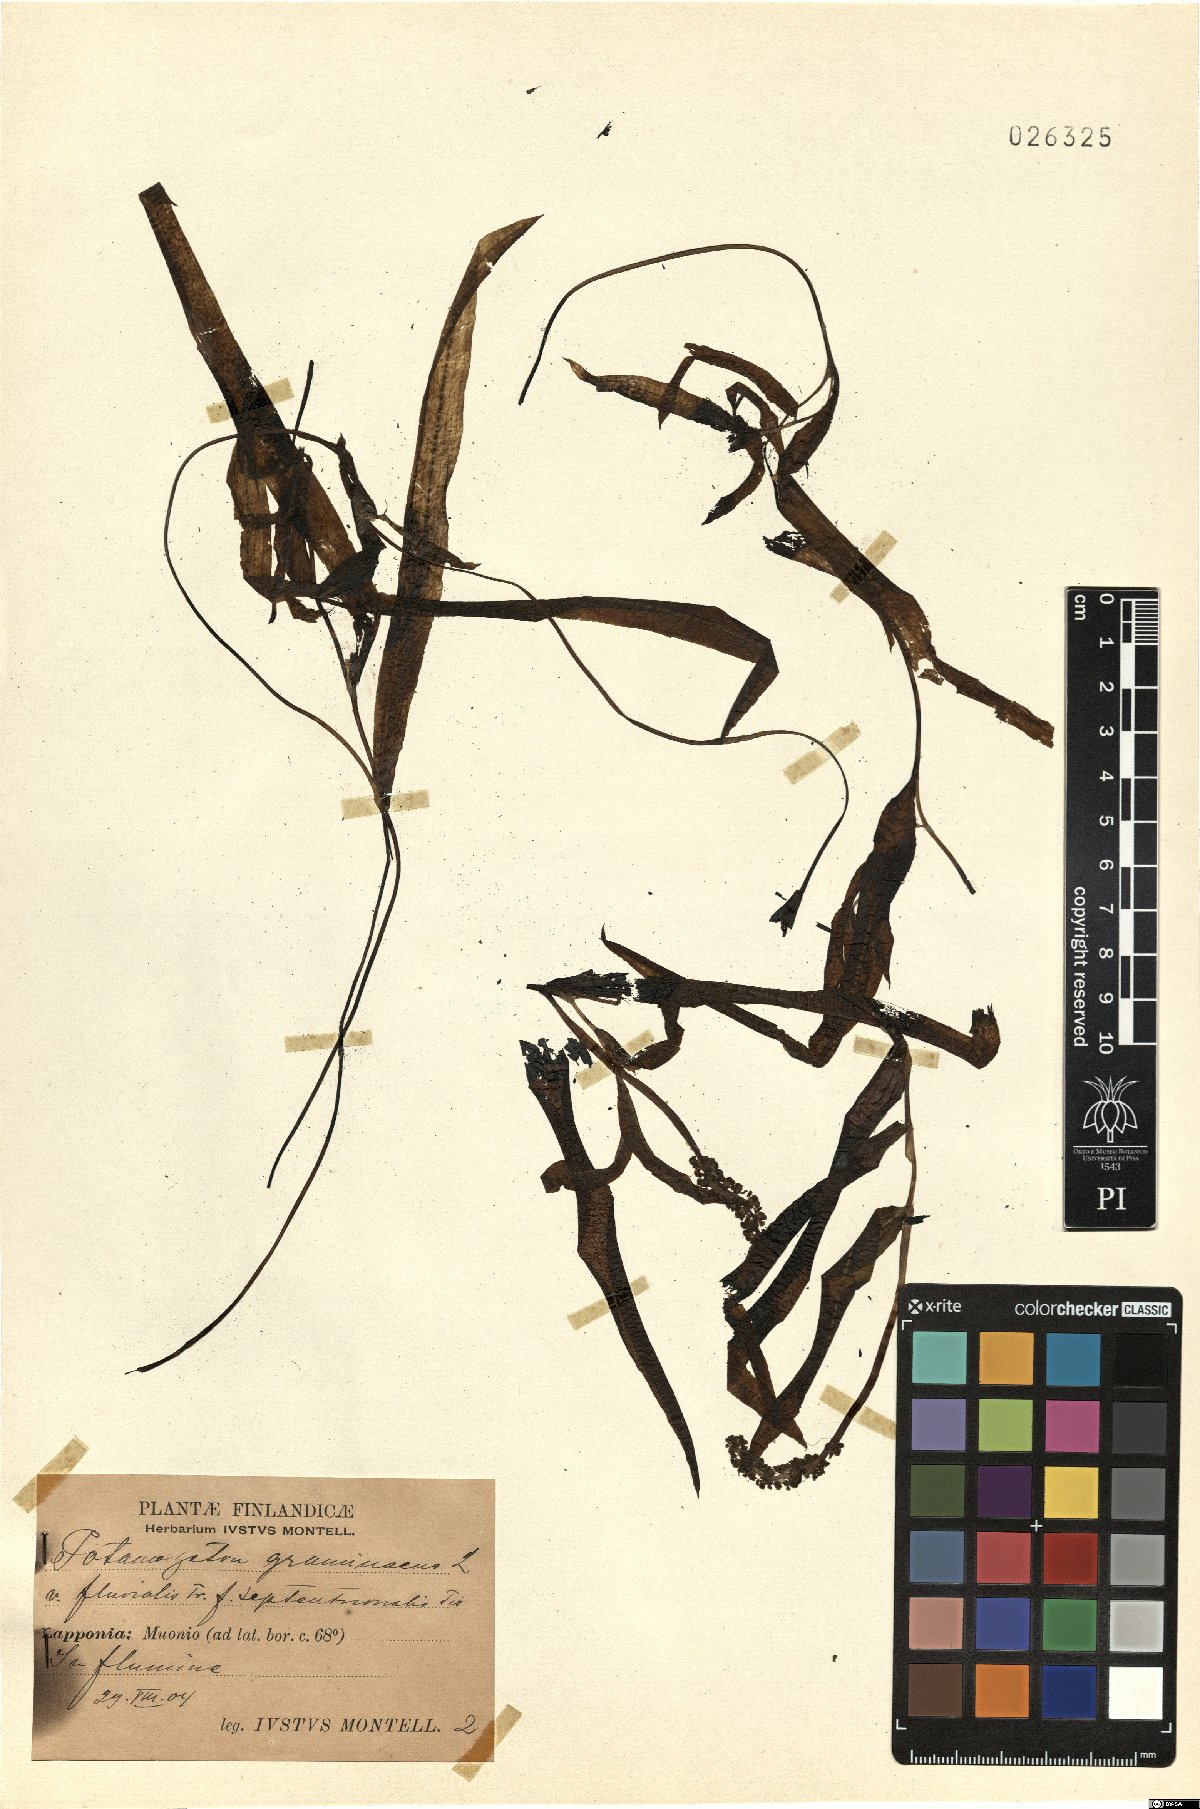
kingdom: Plantae
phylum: Tracheophyta
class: Liliopsida
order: Alismatales
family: Potamogetonaceae
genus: Potamogeton
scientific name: Potamogeton gramineus
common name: Various-leaved pondweed
